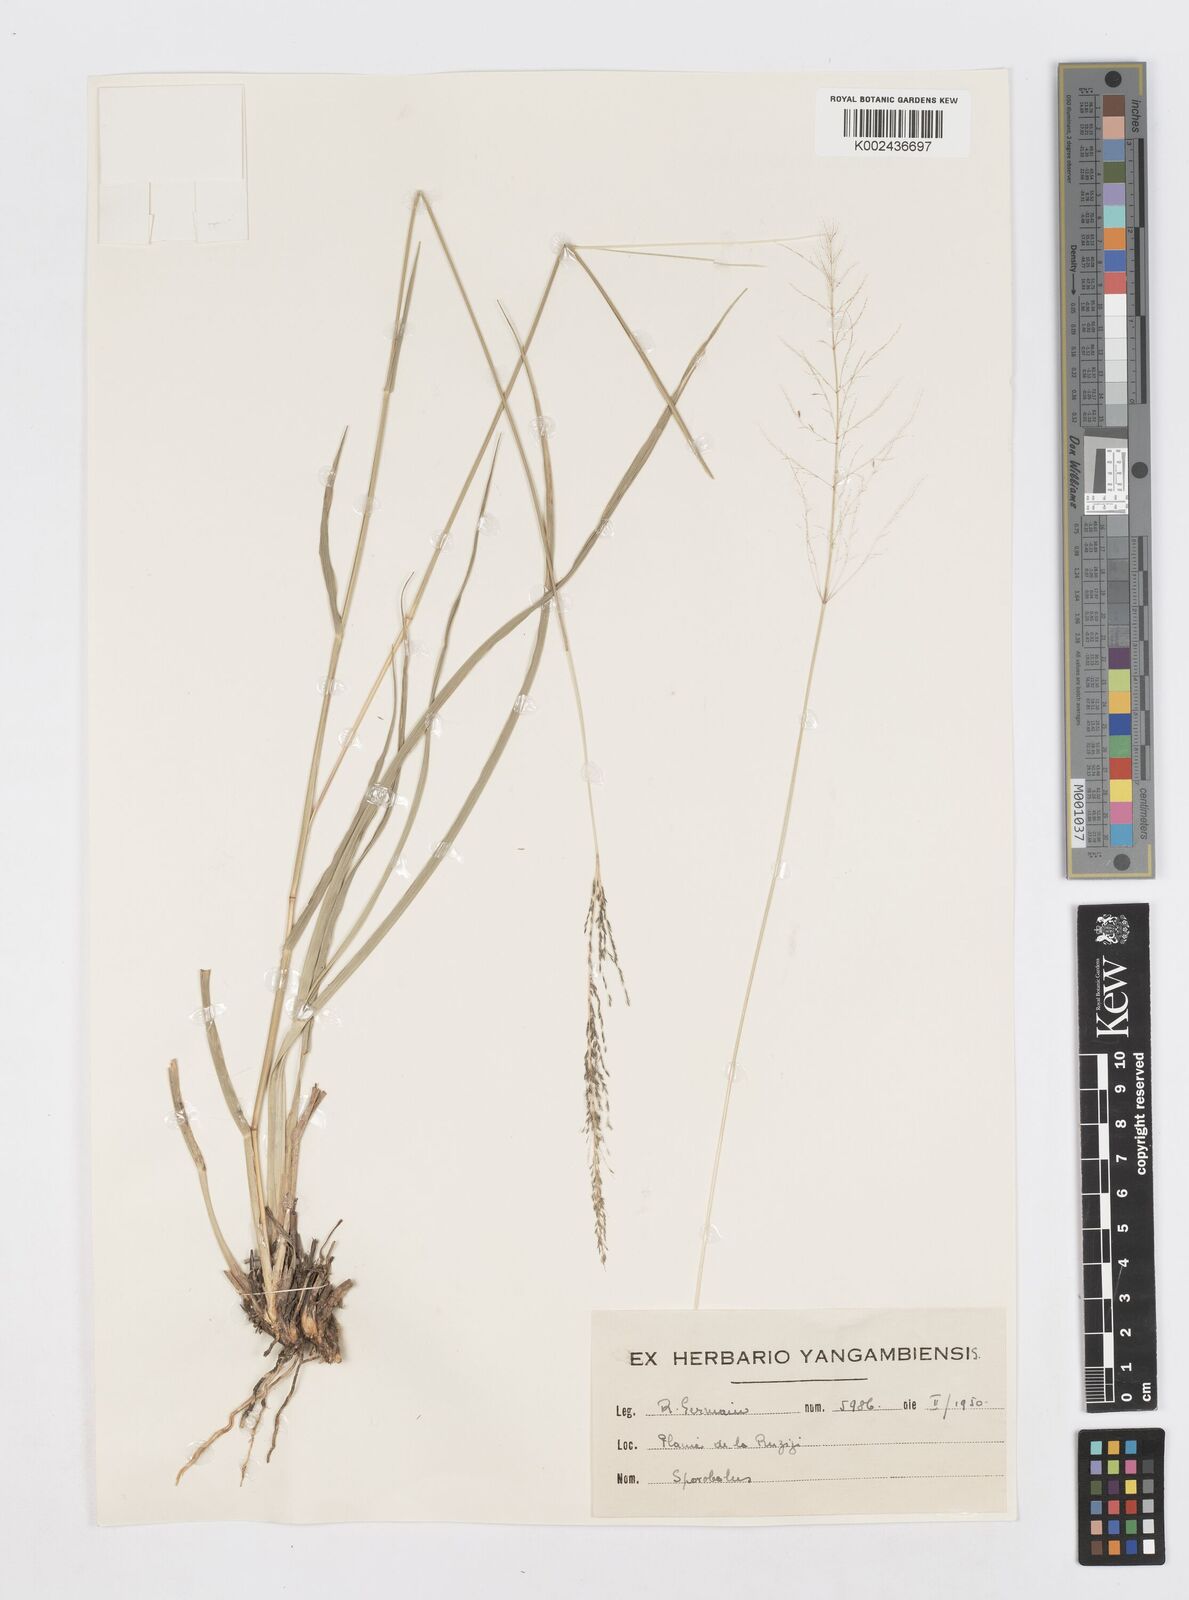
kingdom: Plantae
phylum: Tracheophyta
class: Liliopsida
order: Poales
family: Poaceae
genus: Sporobolus
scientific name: Sporobolus ioclados
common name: Pan dropseed
